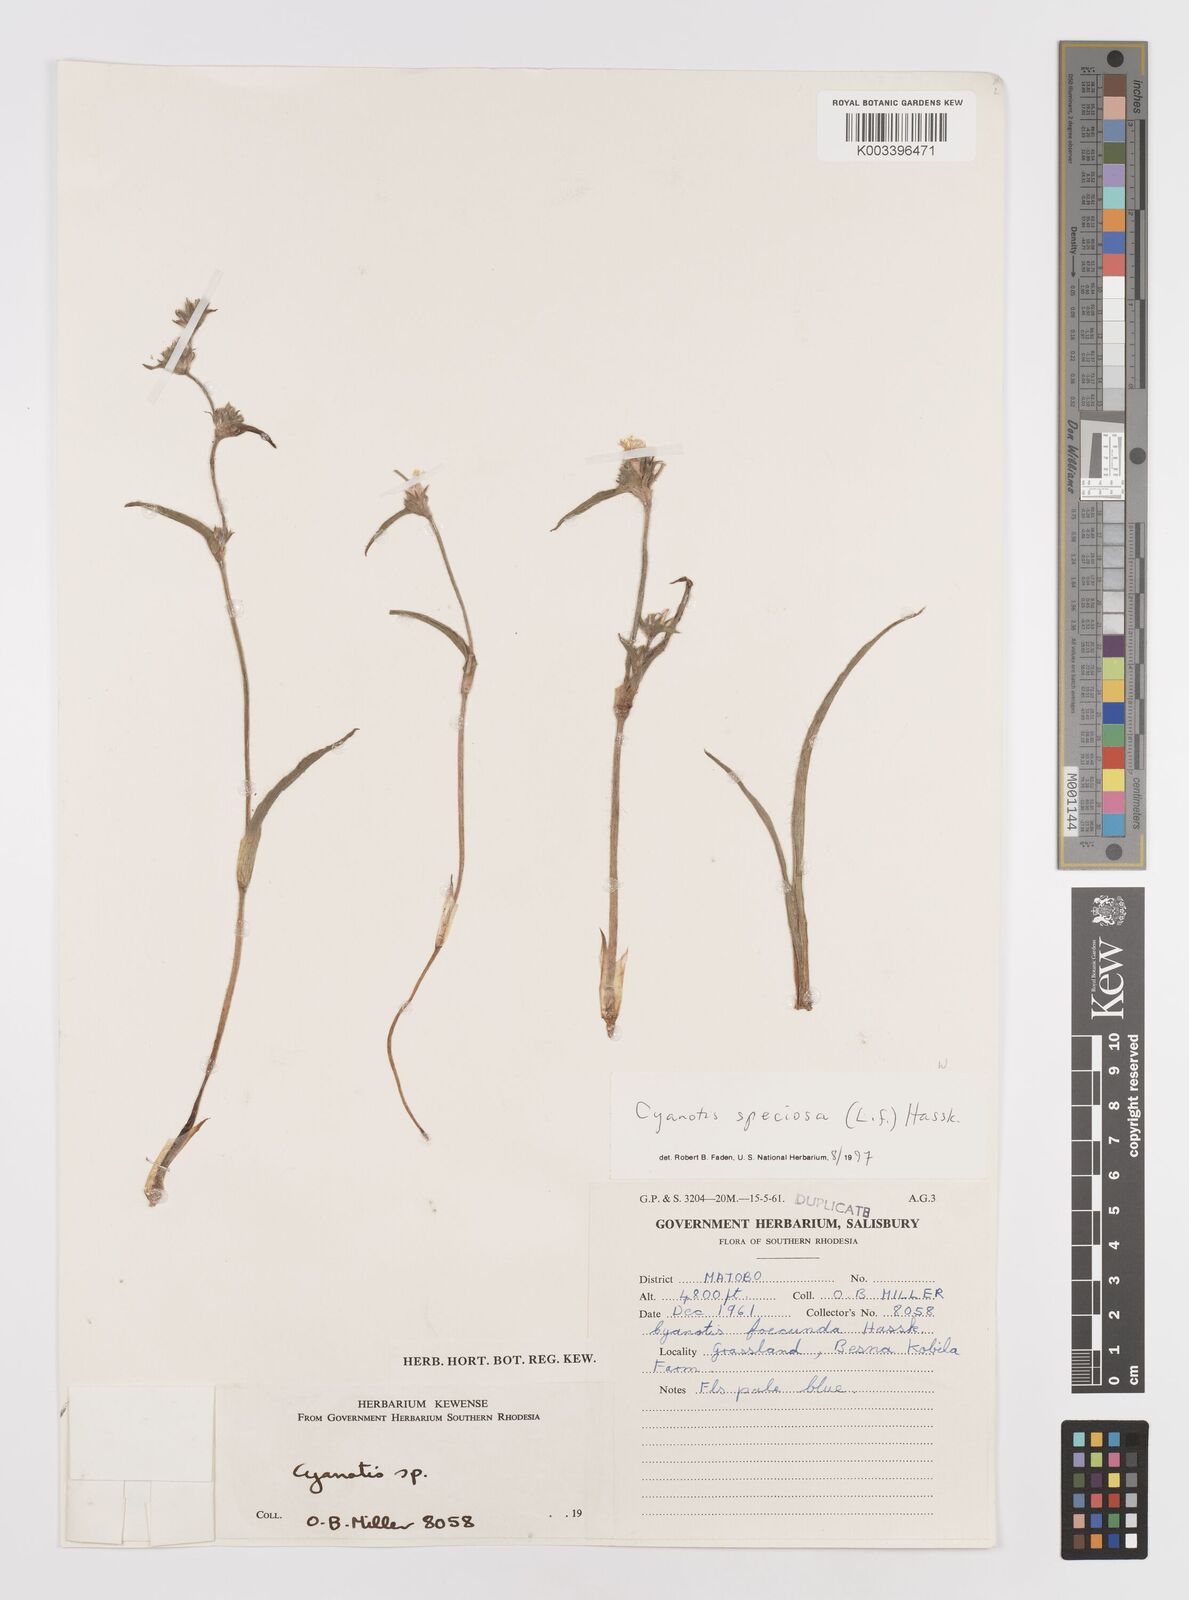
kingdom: Plantae
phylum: Tracheophyta
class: Liliopsida
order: Commelinales
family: Commelinaceae
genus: Cyanotis
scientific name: Cyanotis speciosa
